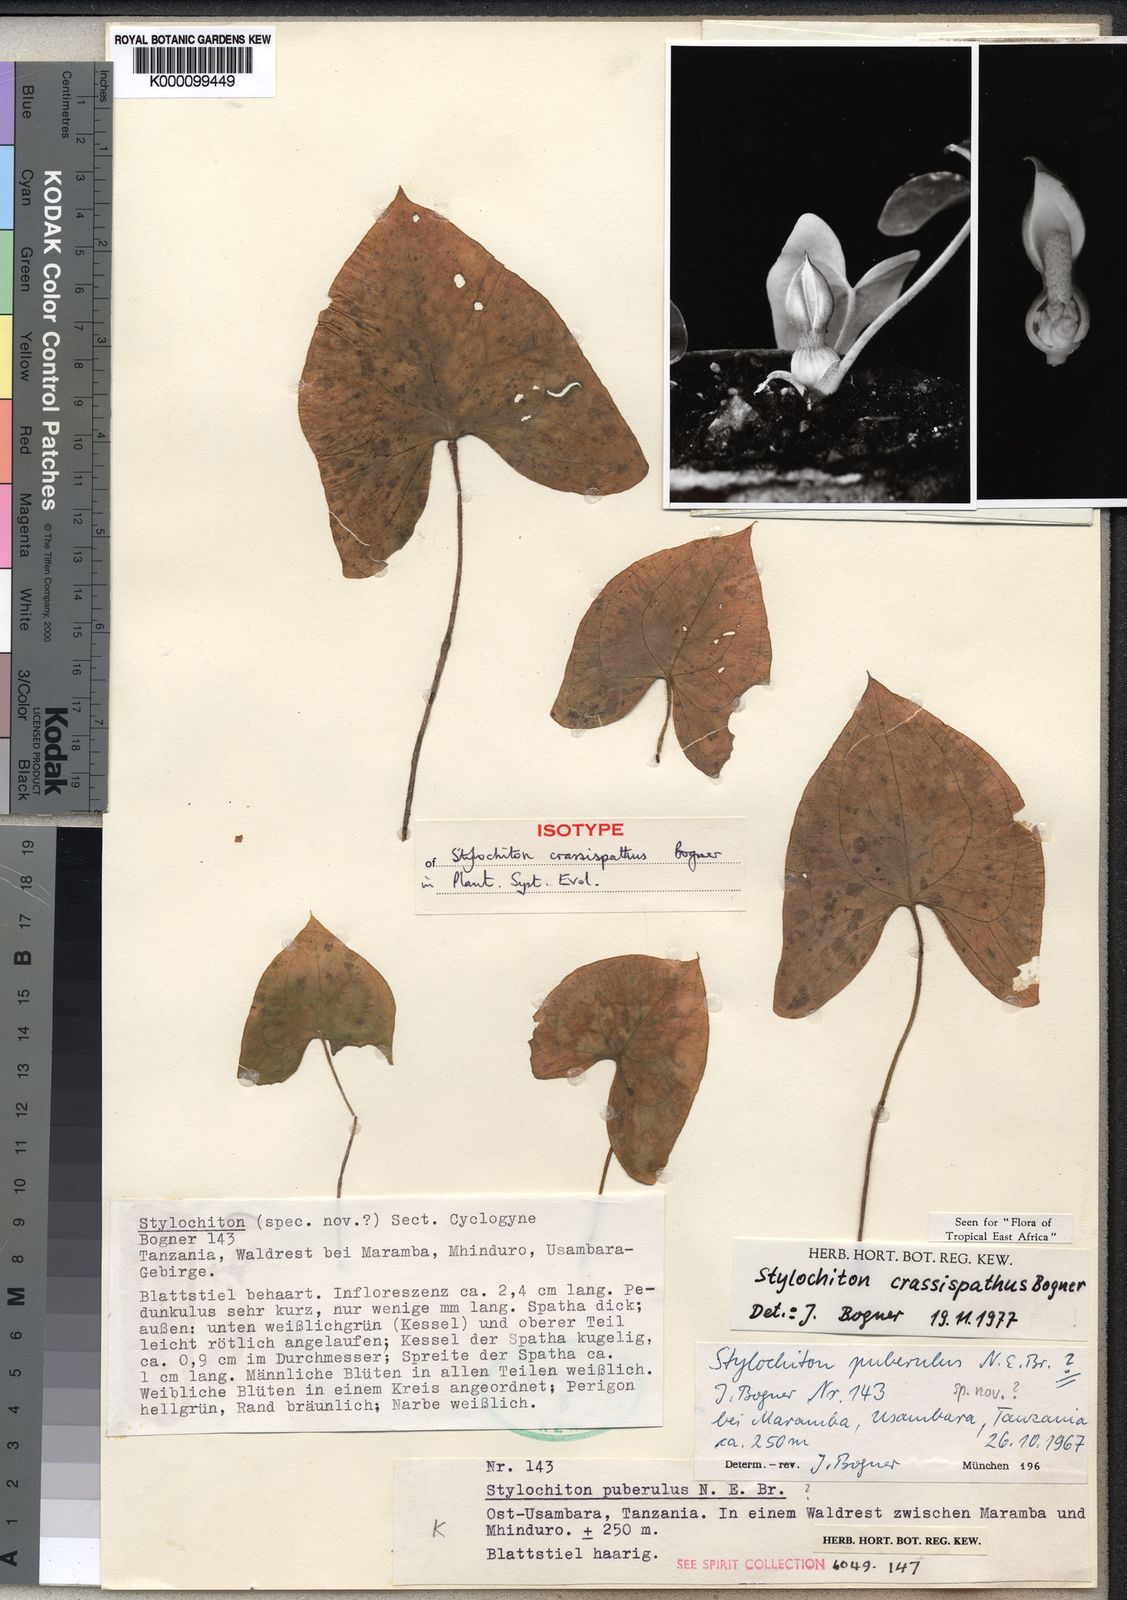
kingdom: Plantae
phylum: Tracheophyta
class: Liliopsida
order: Alismatales
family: Araceae
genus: Stylochaeton
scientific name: Stylochaeton crassispathum
